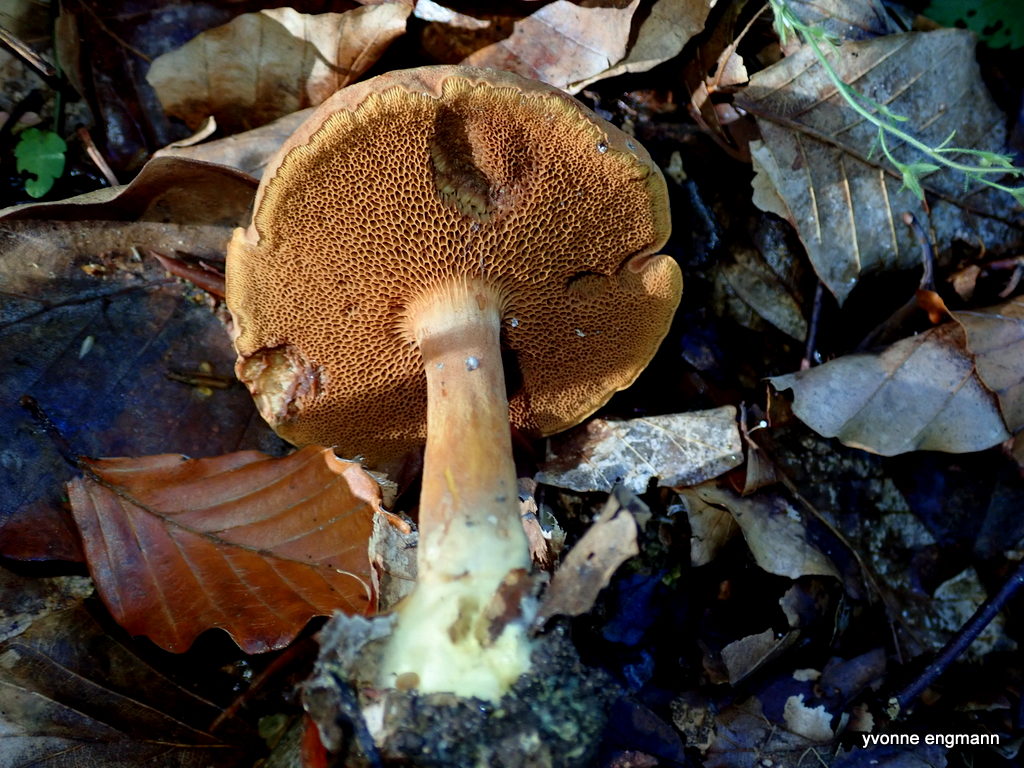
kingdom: Fungi
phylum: Basidiomycota
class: Agaricomycetes
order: Boletales
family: Boletaceae
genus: Chalciporus
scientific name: Chalciporus piperatus
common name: peberrørhat
